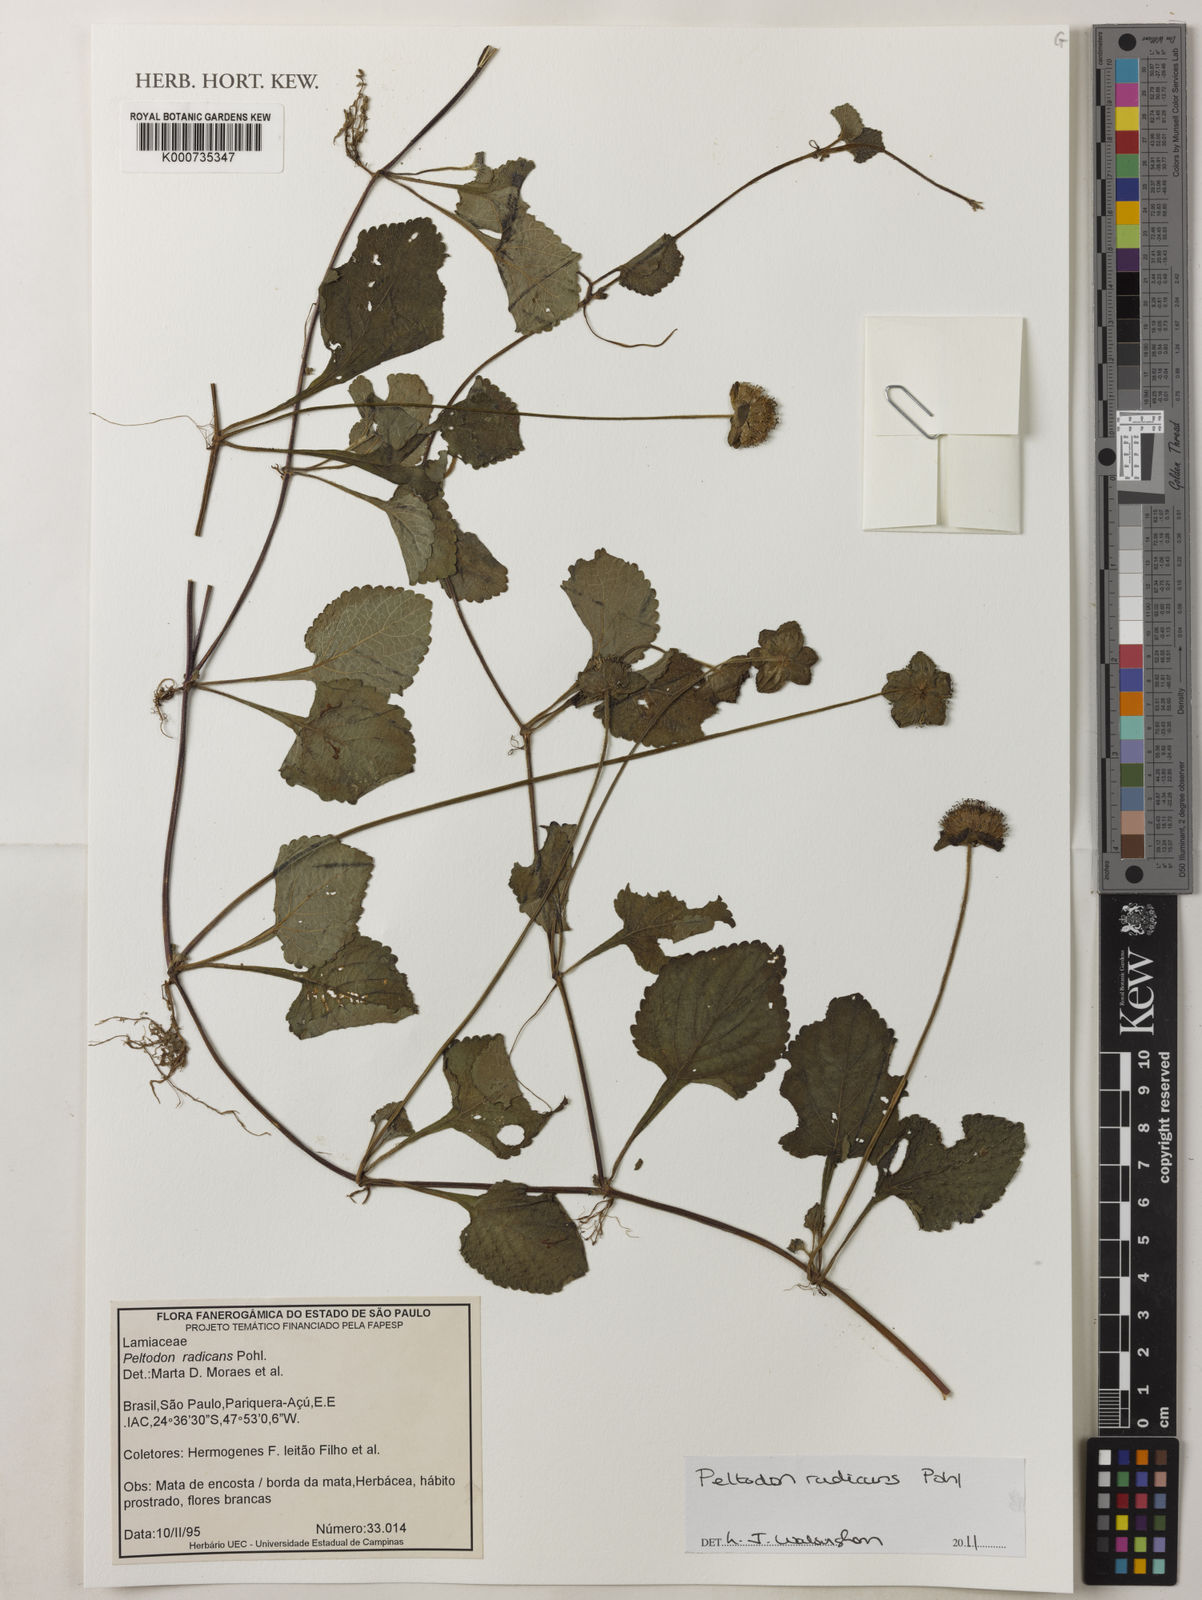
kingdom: Plantae
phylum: Tracheophyta
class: Magnoliopsida
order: Lamiales
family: Lamiaceae
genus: Hyptis
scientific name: Hyptis radicans
